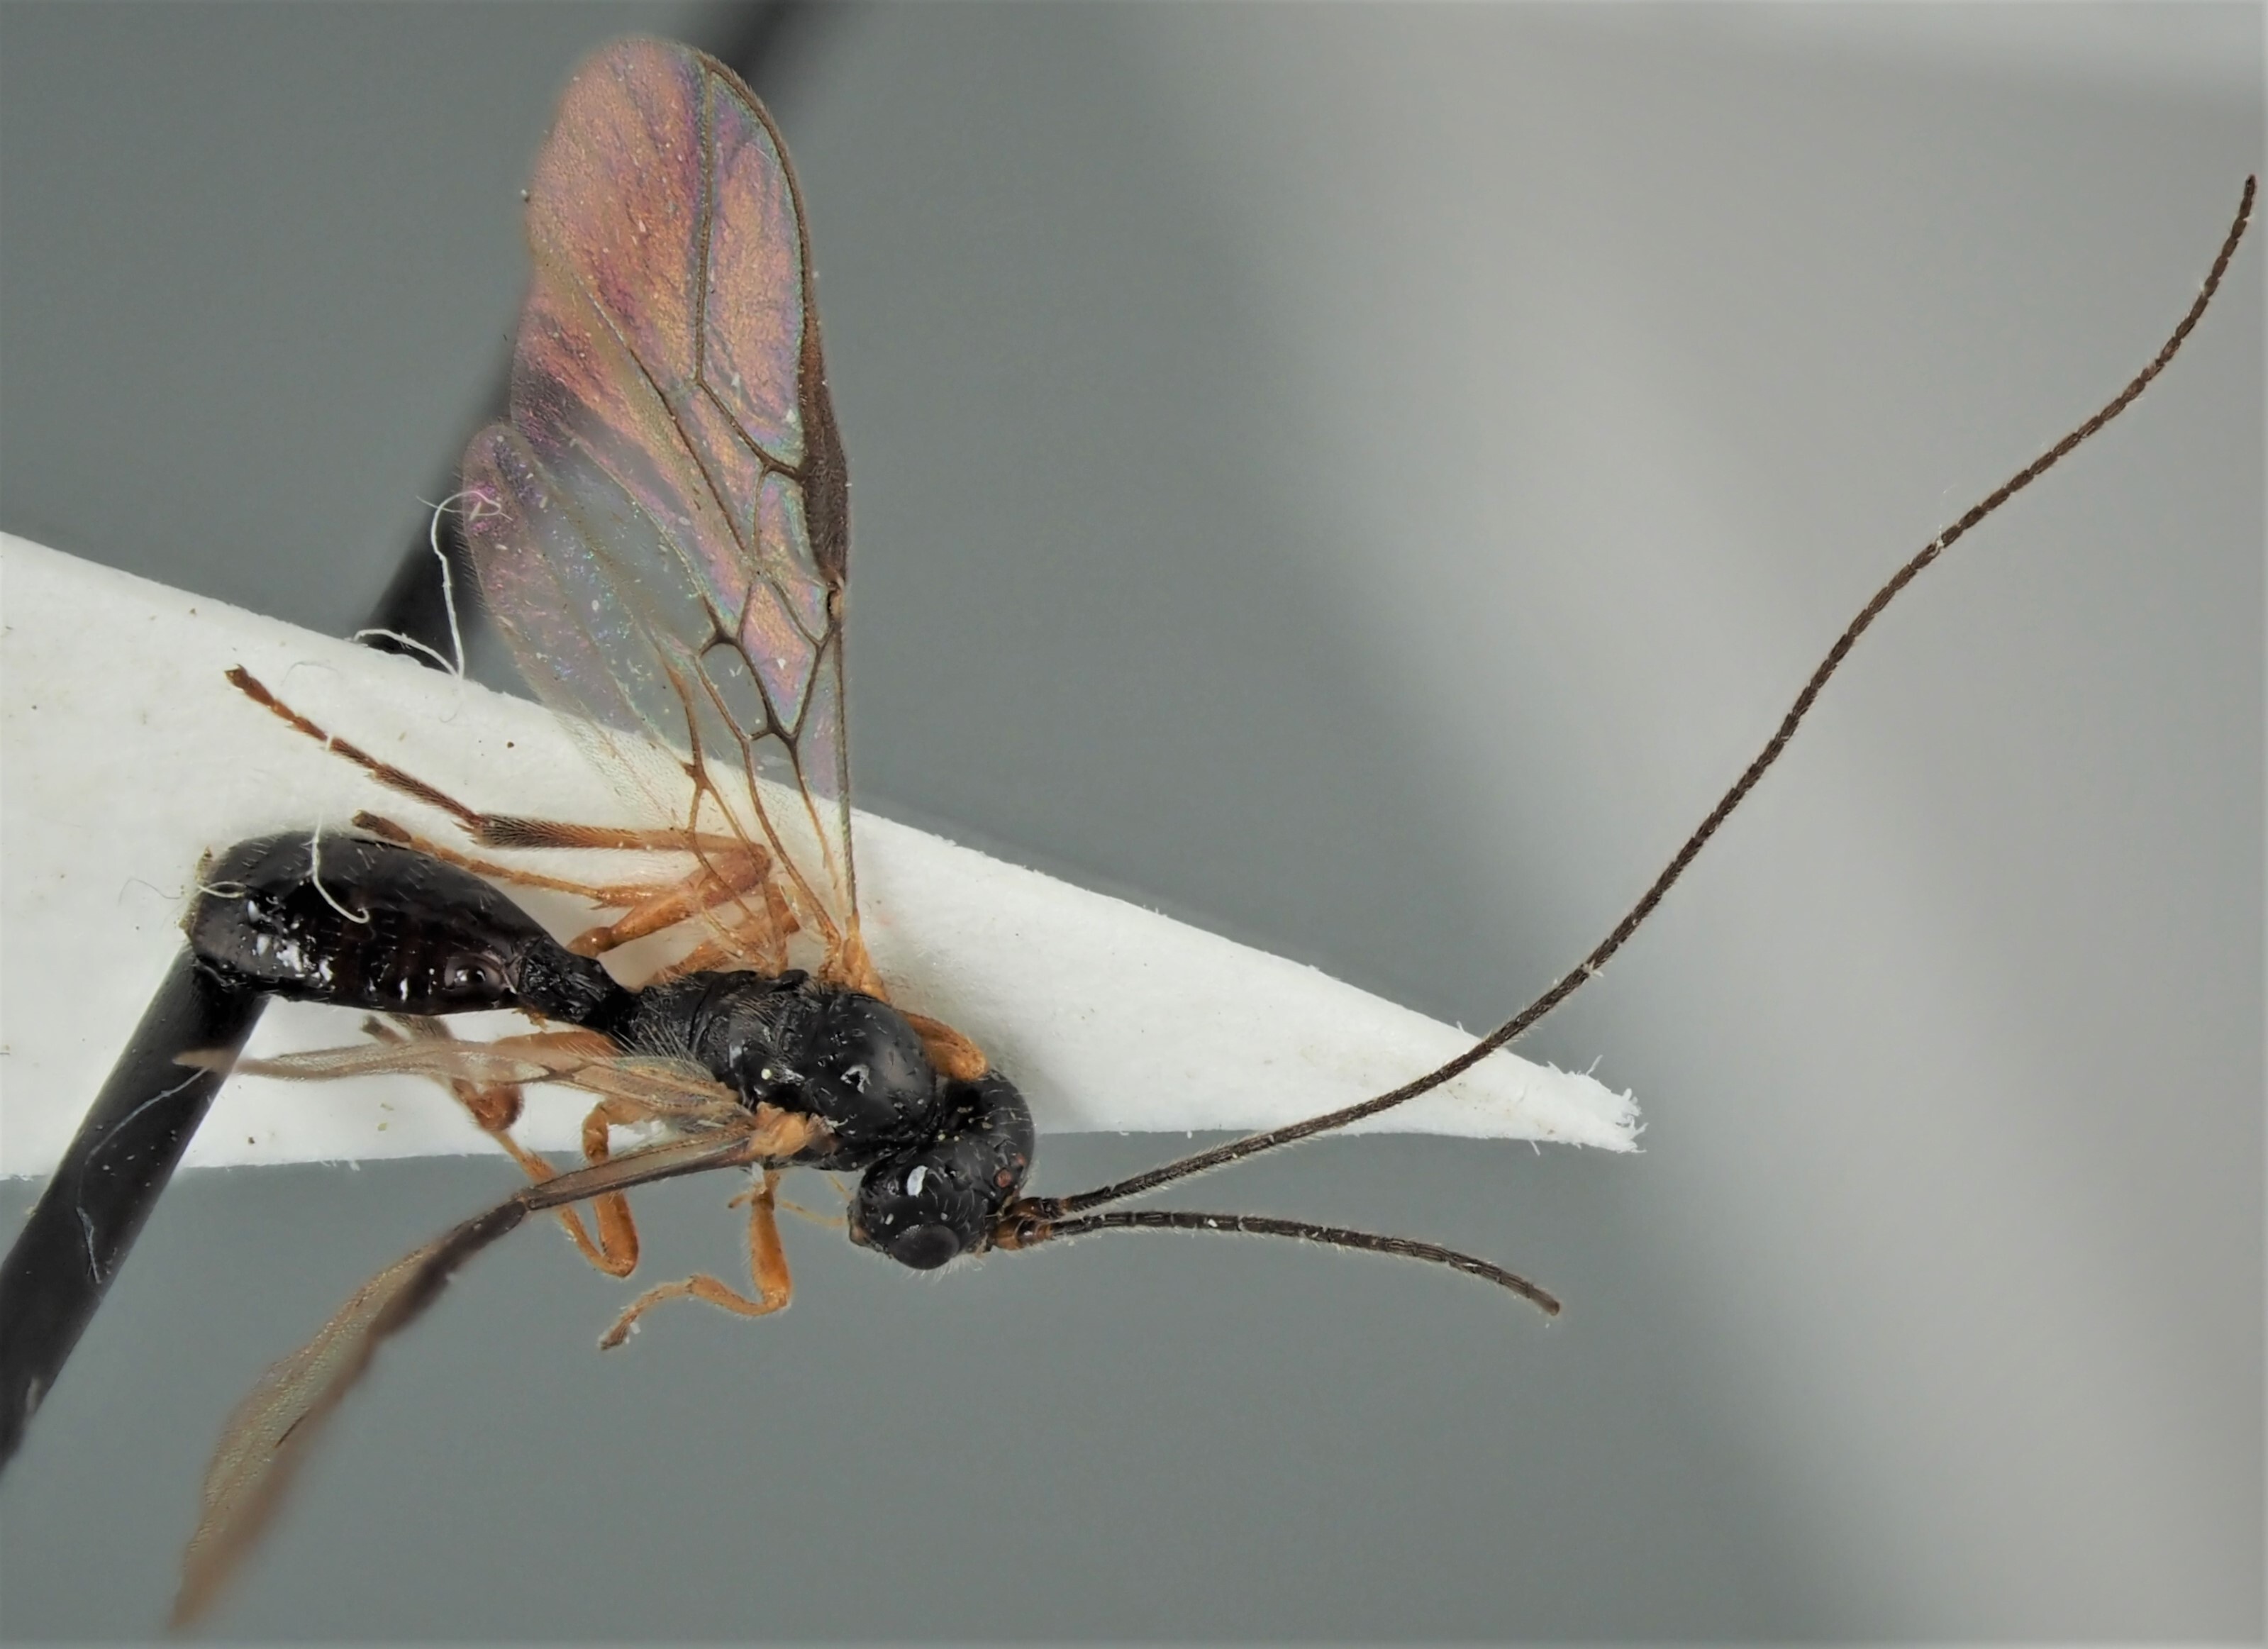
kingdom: Animalia
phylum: Arthropoda
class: Insecta
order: Hymenoptera
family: Braconidae
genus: Adelurola
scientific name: Adelurola florimela
